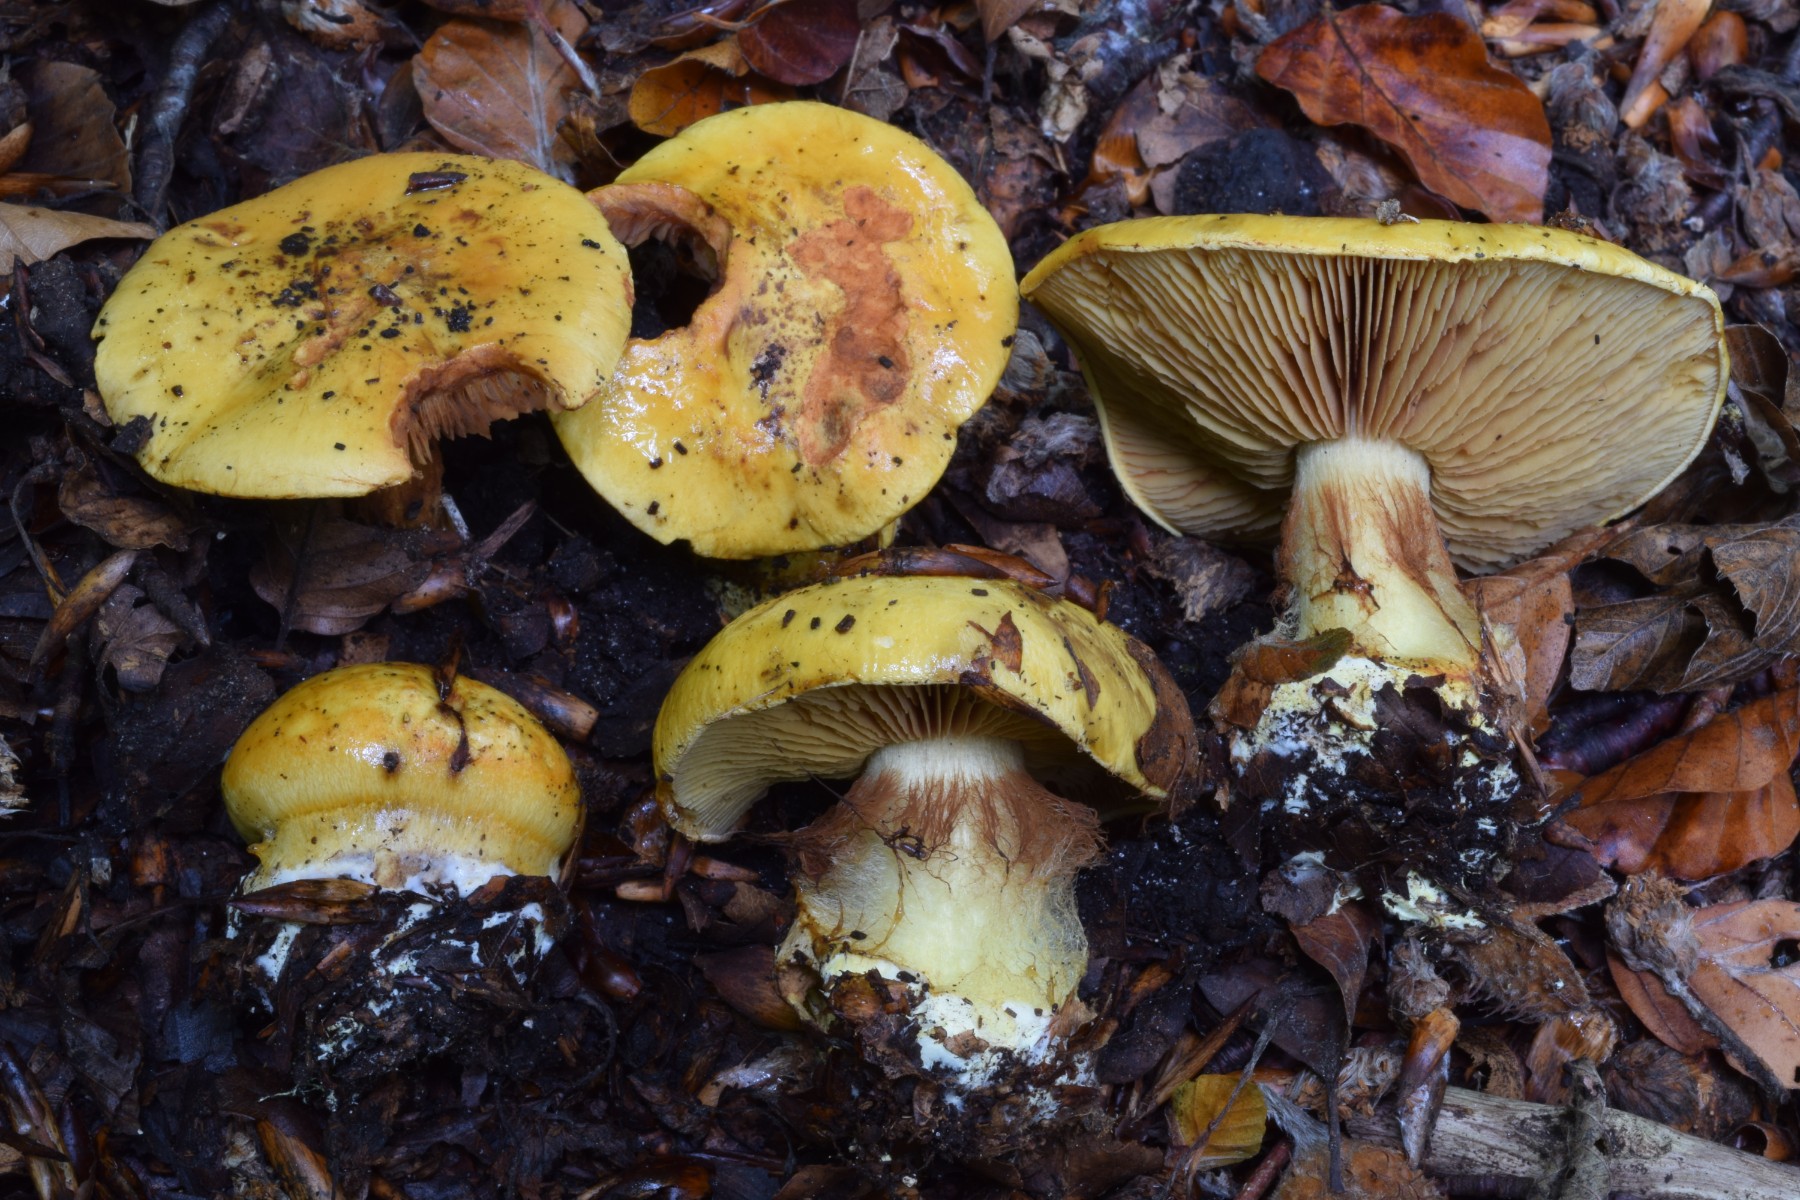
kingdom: Fungi
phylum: Basidiomycota
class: Agaricomycetes
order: Agaricales
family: Cortinariaceae
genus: Calonarius
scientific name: Calonarius olearioides
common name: safran-slørhat
